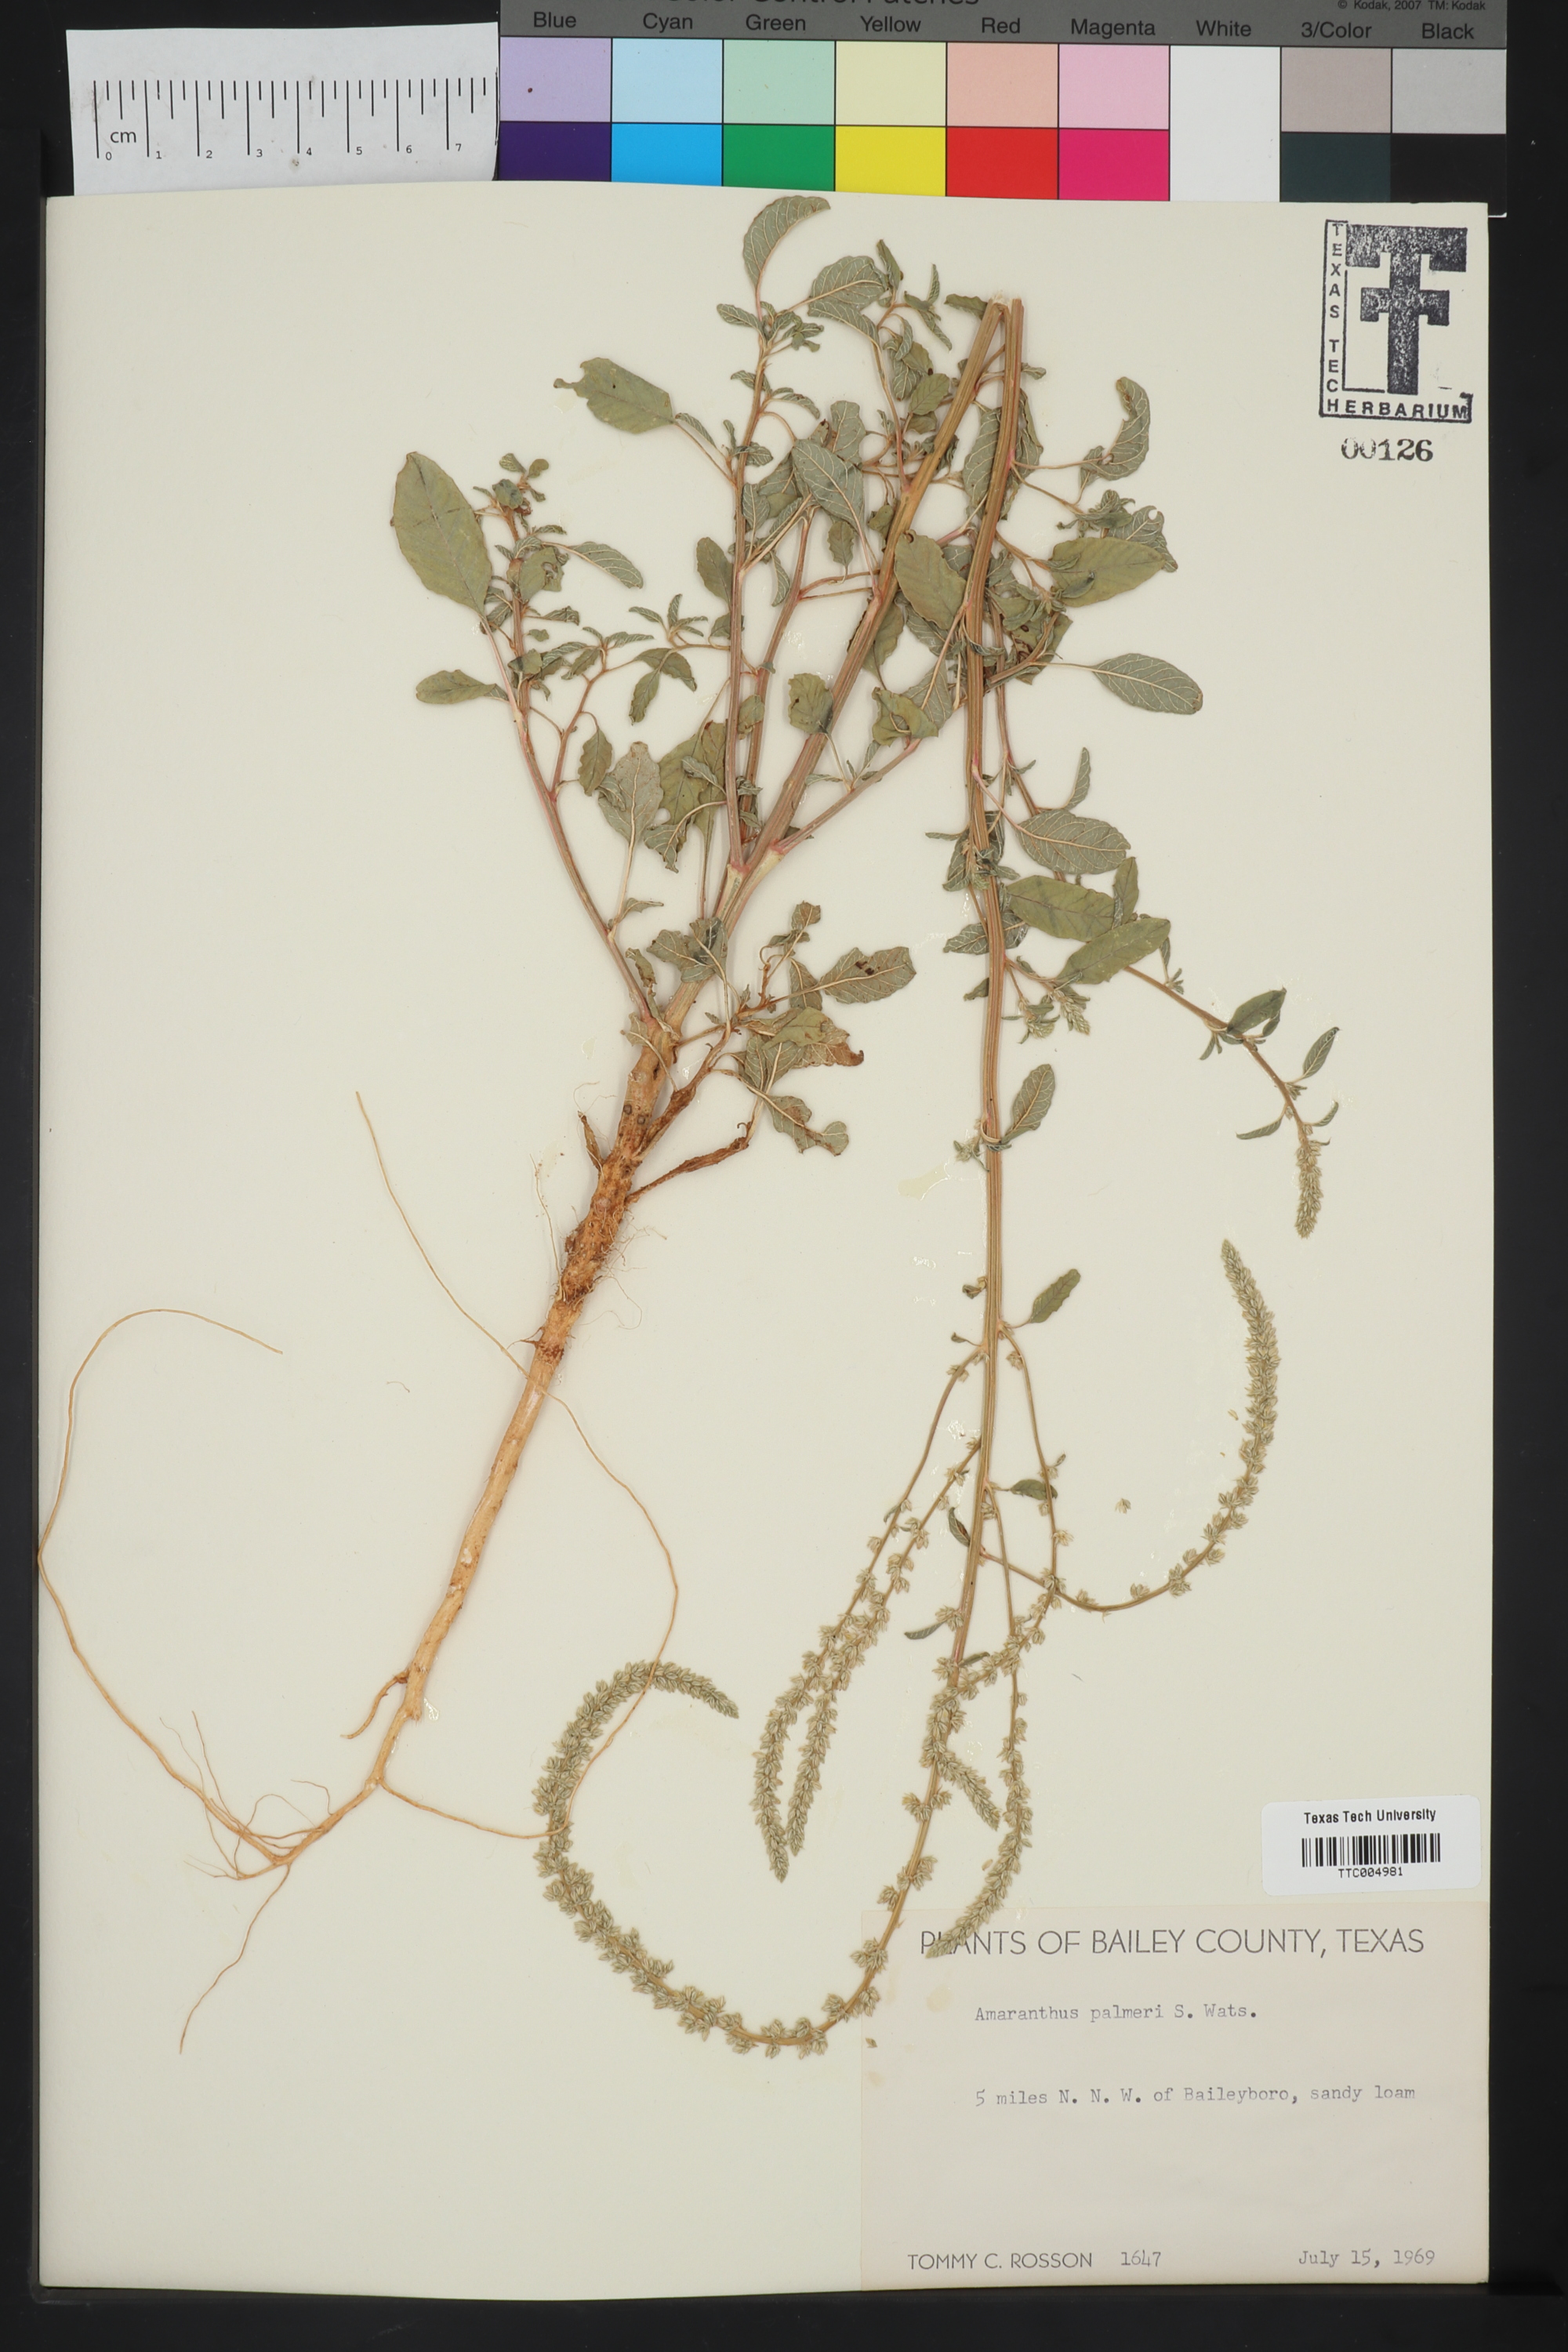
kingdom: Plantae
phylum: Tracheophyta
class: Magnoliopsida
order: Caryophyllales
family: Amaranthaceae
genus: Amaranthus
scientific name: Amaranthus palmeri
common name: Dioecious amaranth
